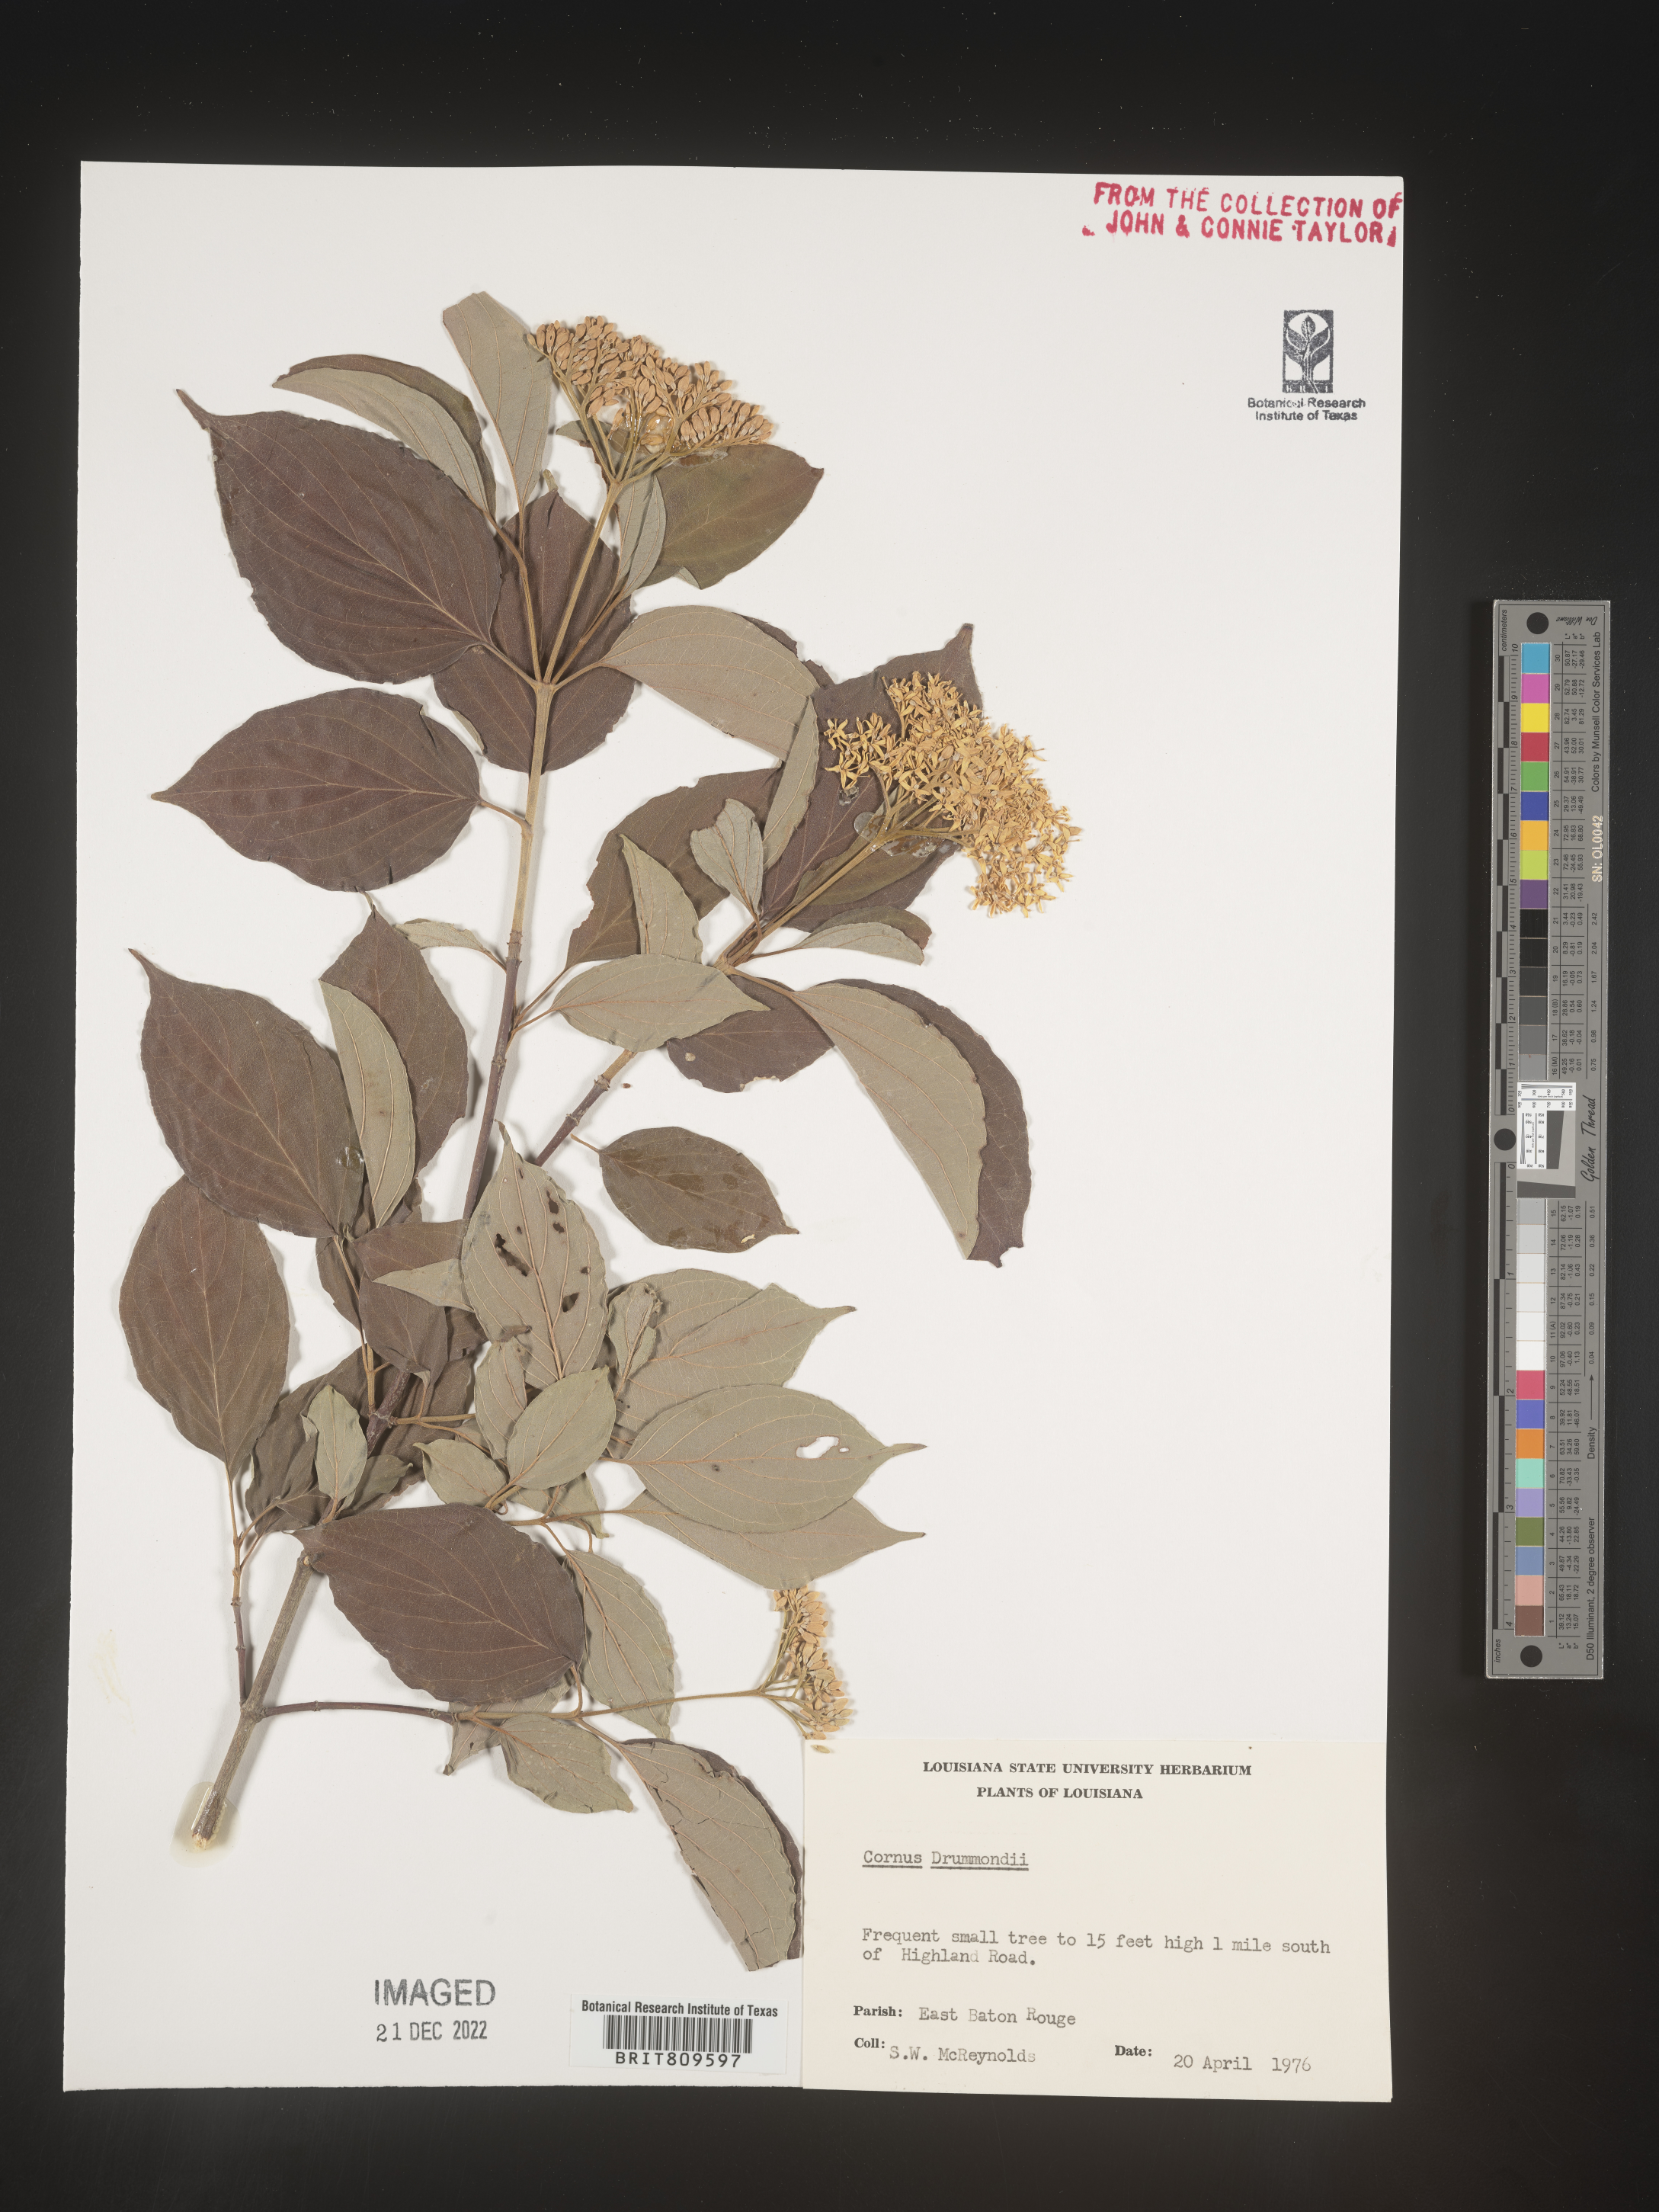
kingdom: Plantae
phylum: Tracheophyta
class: Magnoliopsida
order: Cornales
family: Cornaceae
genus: Cornus
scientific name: Cornus drummondii
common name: Rough-leaf dogwood
